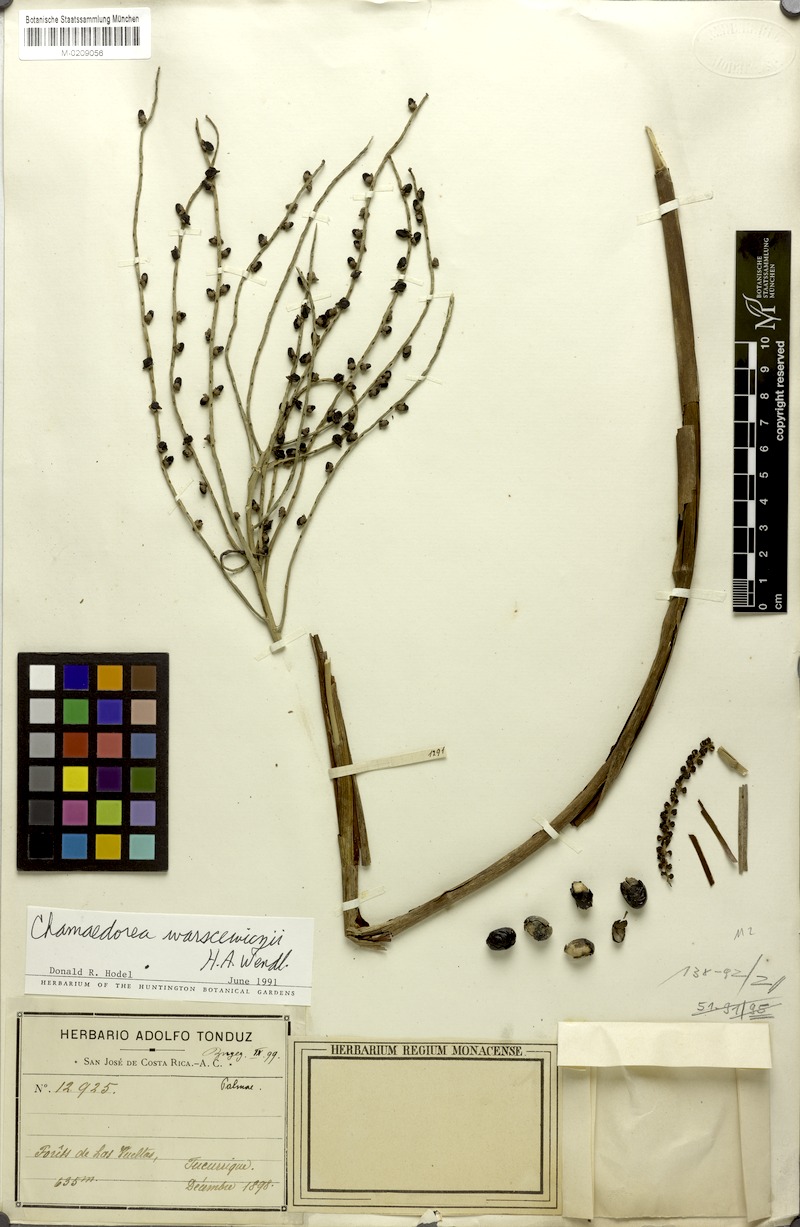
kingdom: Plantae
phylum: Tracheophyta
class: Liliopsida
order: Arecales
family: Arecaceae
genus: Chamaedorea
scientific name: Chamaedorea warscewiczii
